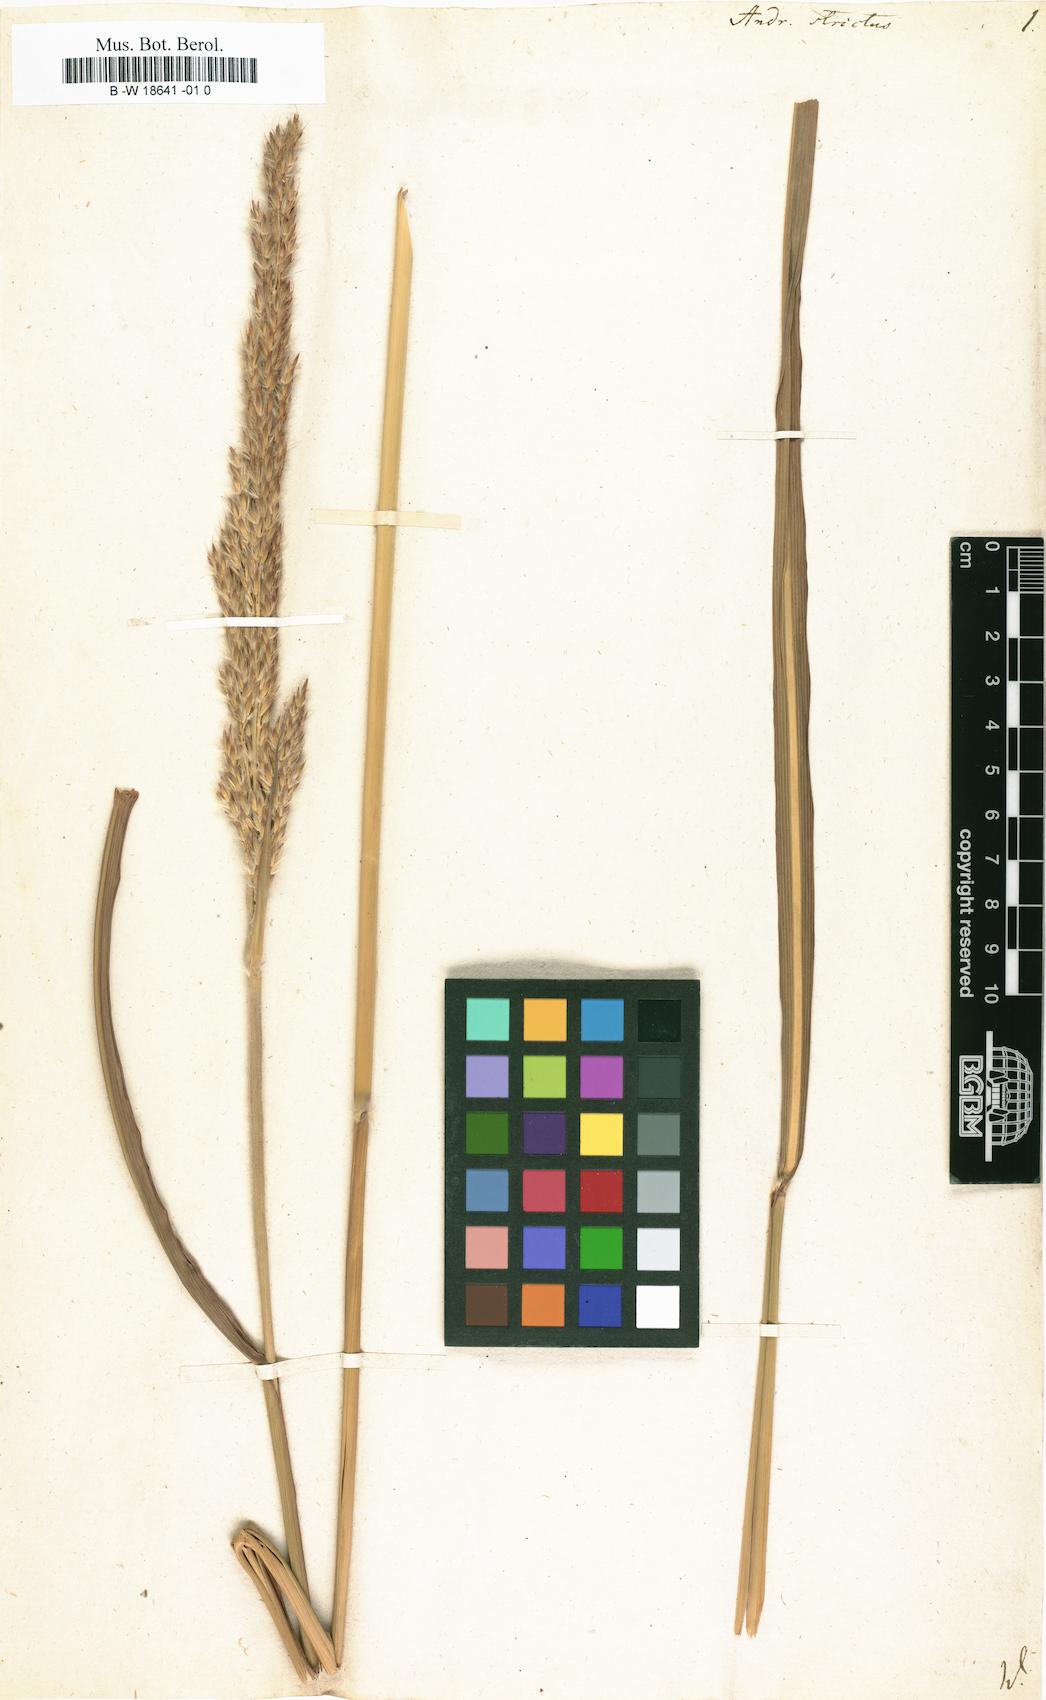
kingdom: Plantae
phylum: Tracheophyta
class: Liliopsida
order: Poales
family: Poaceae
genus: Tripidium
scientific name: Tripidium strictum
